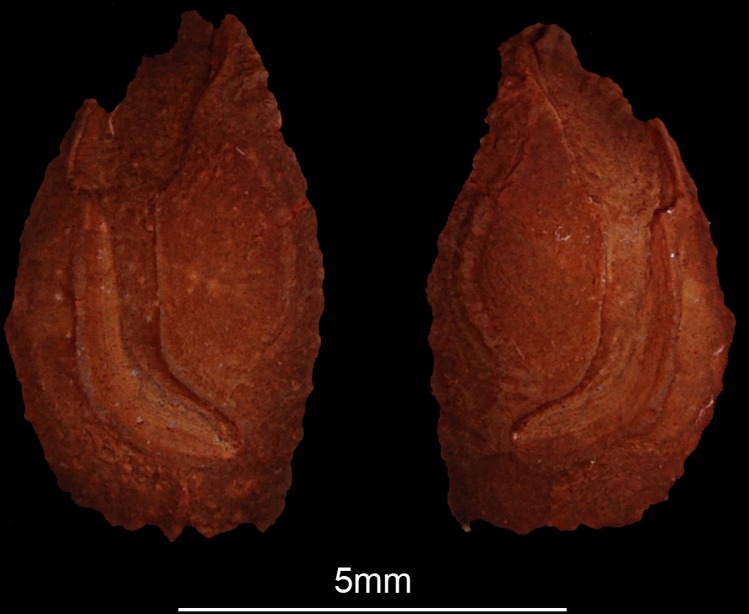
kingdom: Animalia
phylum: Chordata
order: Perciformes
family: Lethrinidae
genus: Lethrinus
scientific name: Lethrinus microdon
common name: Smalltooth emperor
